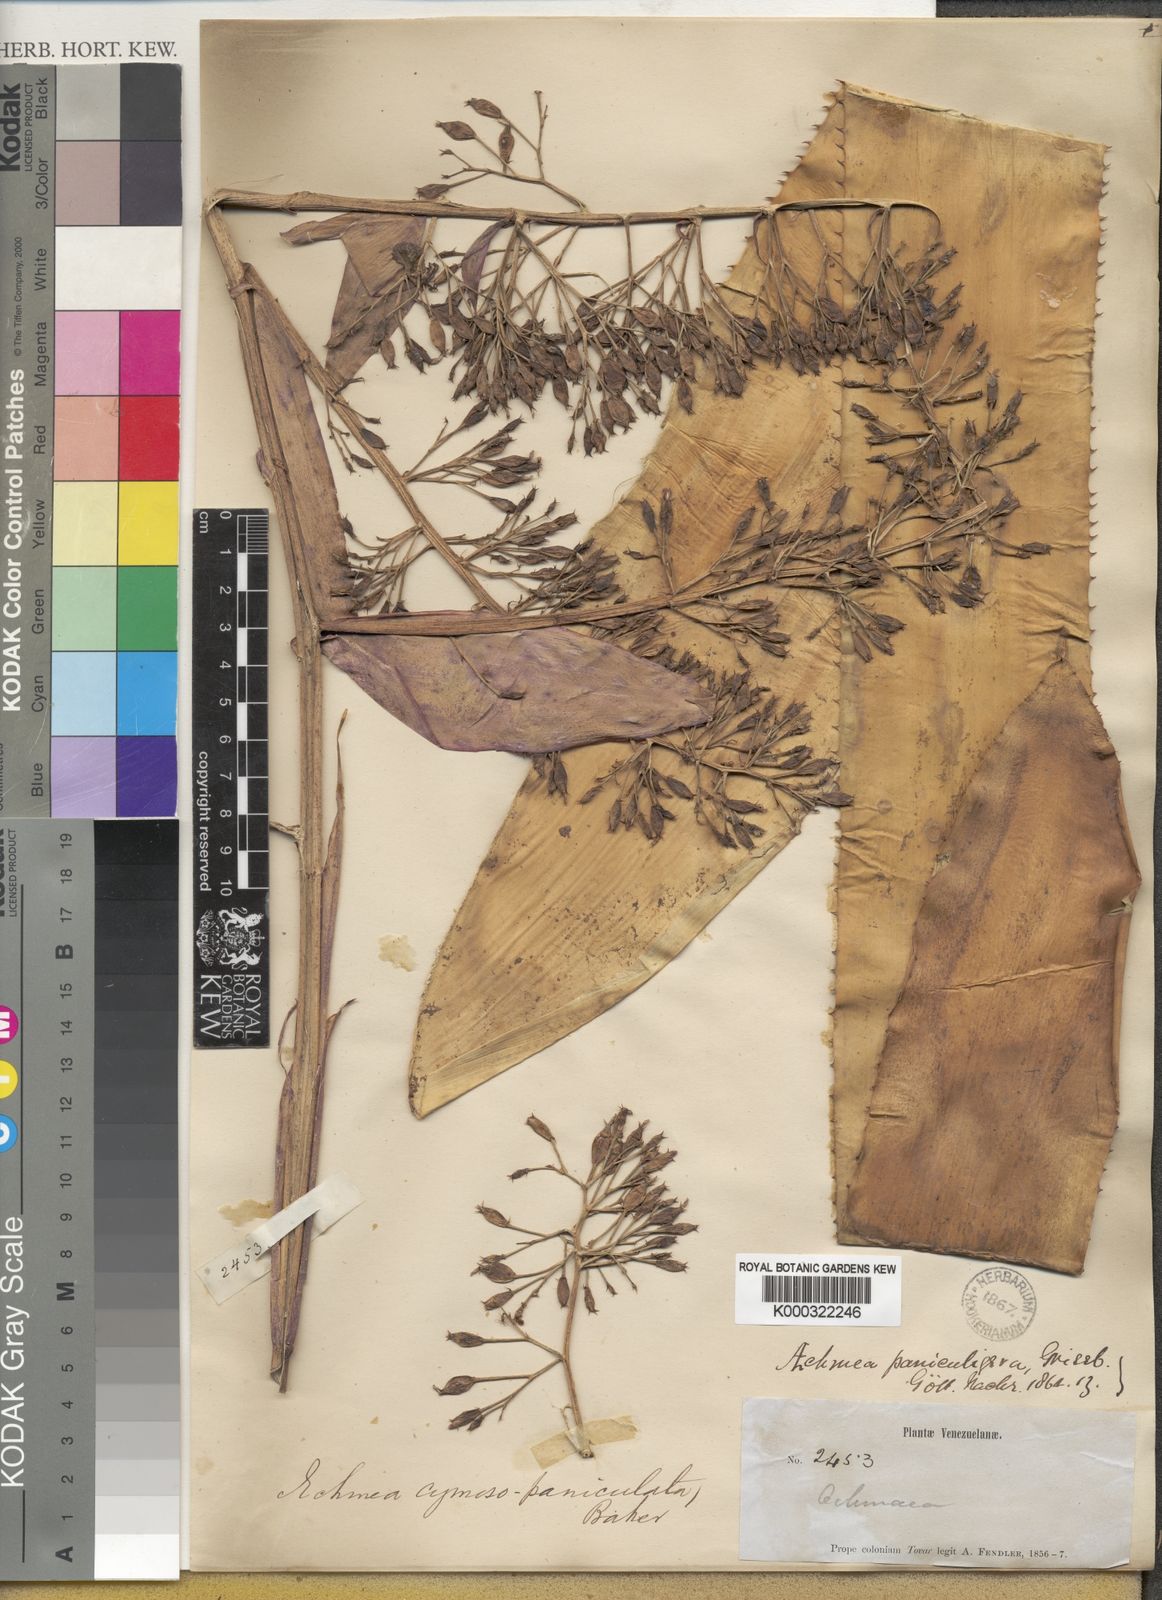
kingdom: Plantae
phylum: Tracheophyta
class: Liliopsida
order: Poales
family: Bromeliaceae
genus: Aechmea
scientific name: Aechmea cymosopaniculata
